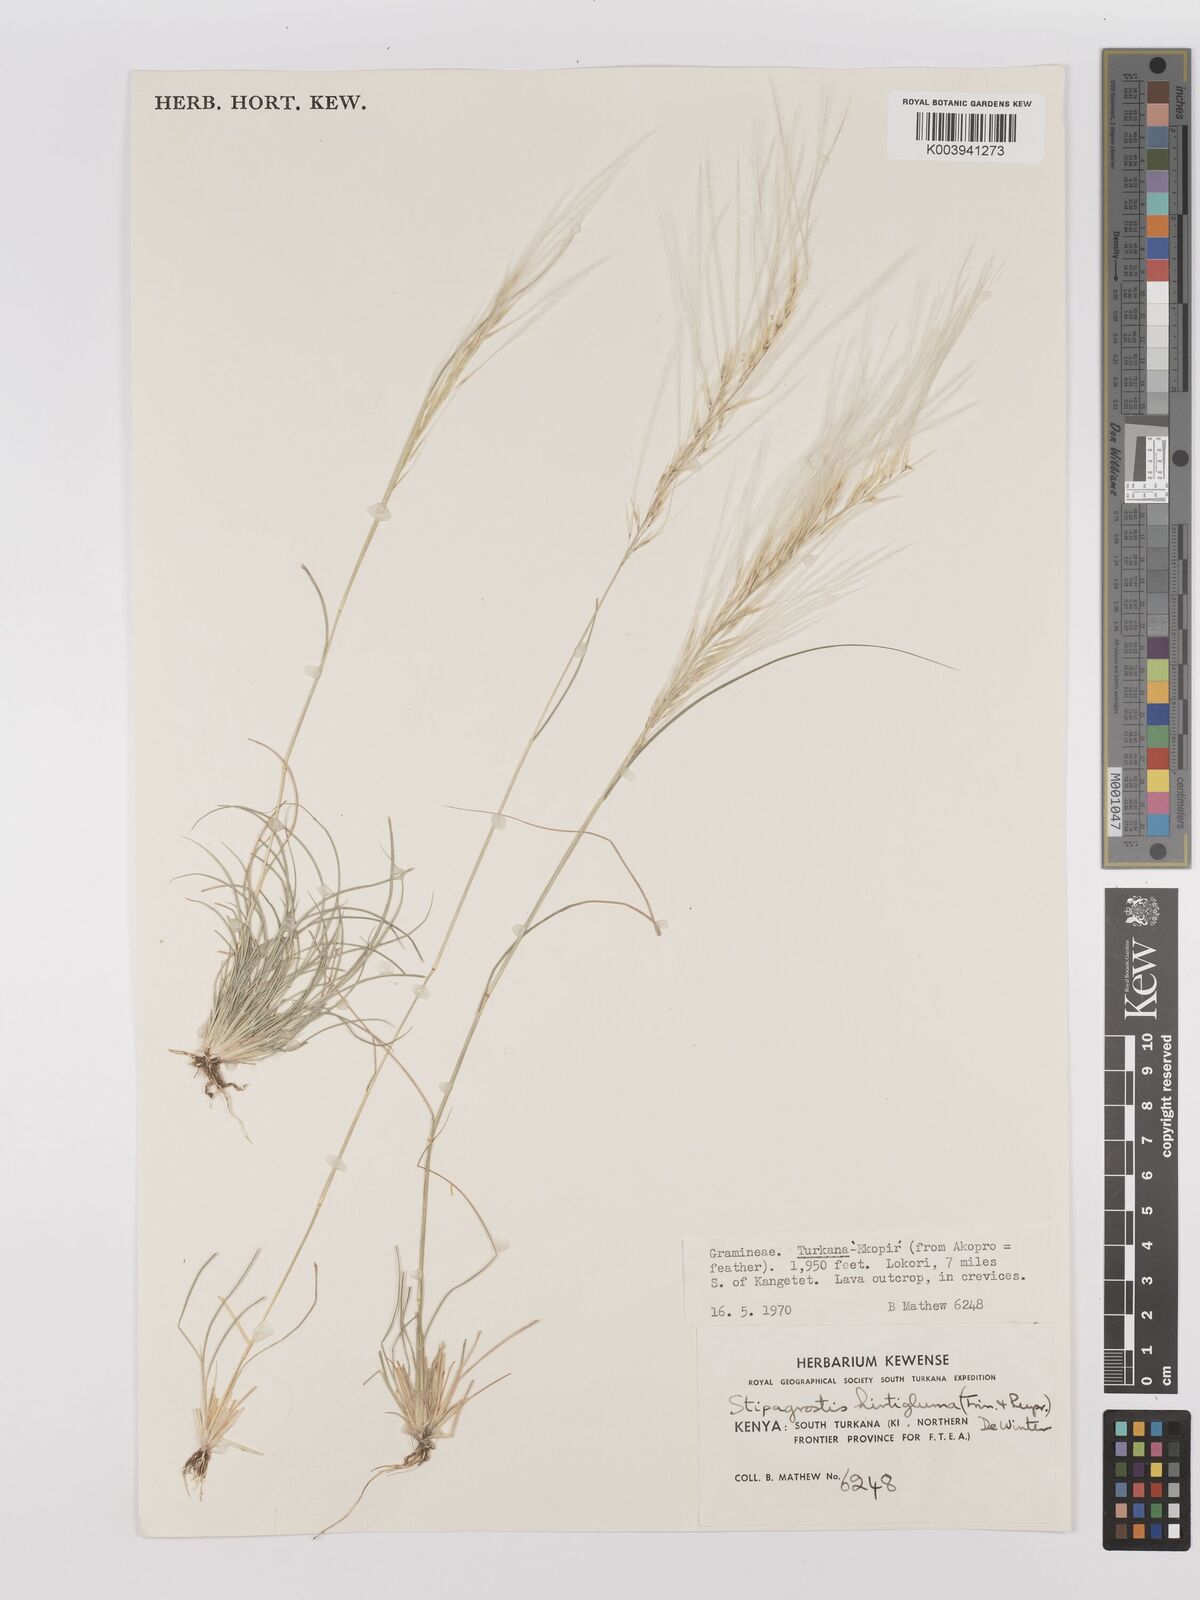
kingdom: Plantae
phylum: Tracheophyta
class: Liliopsida
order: Poales
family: Poaceae
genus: Stipagrostis
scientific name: Stipagrostis hirtigluma
